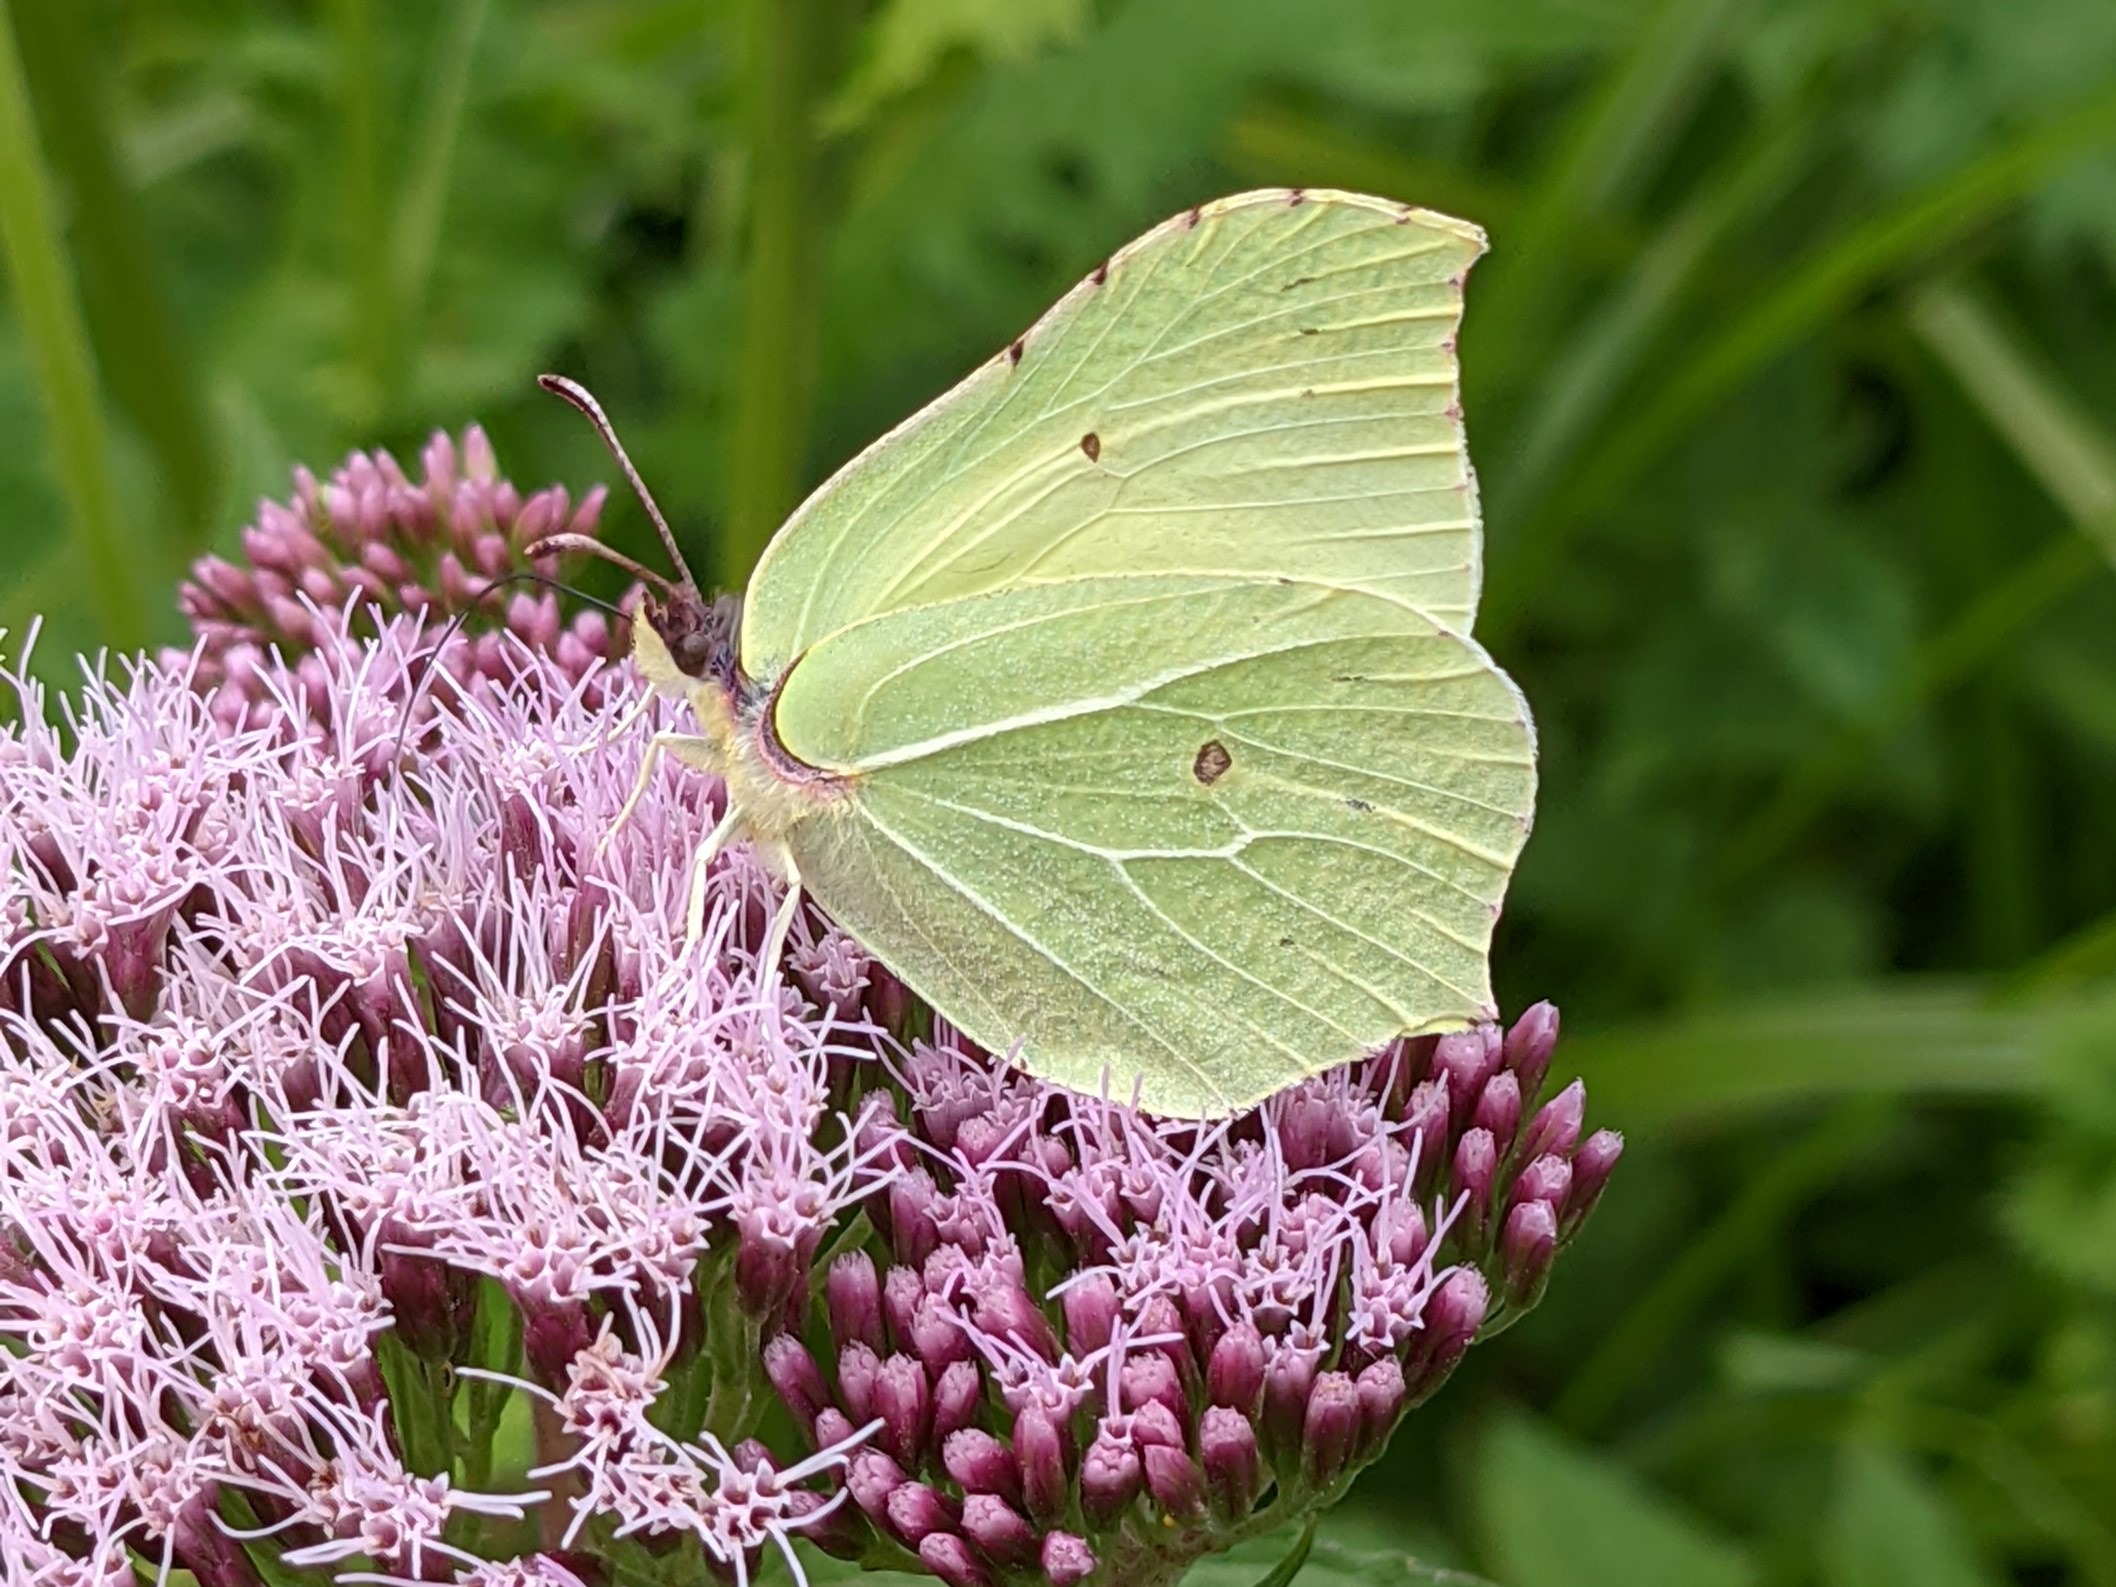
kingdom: Animalia
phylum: Arthropoda
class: Insecta
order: Lepidoptera
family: Pieridae
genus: Gonepteryx
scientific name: Gonepteryx rhamni
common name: Citronsommerfugl
